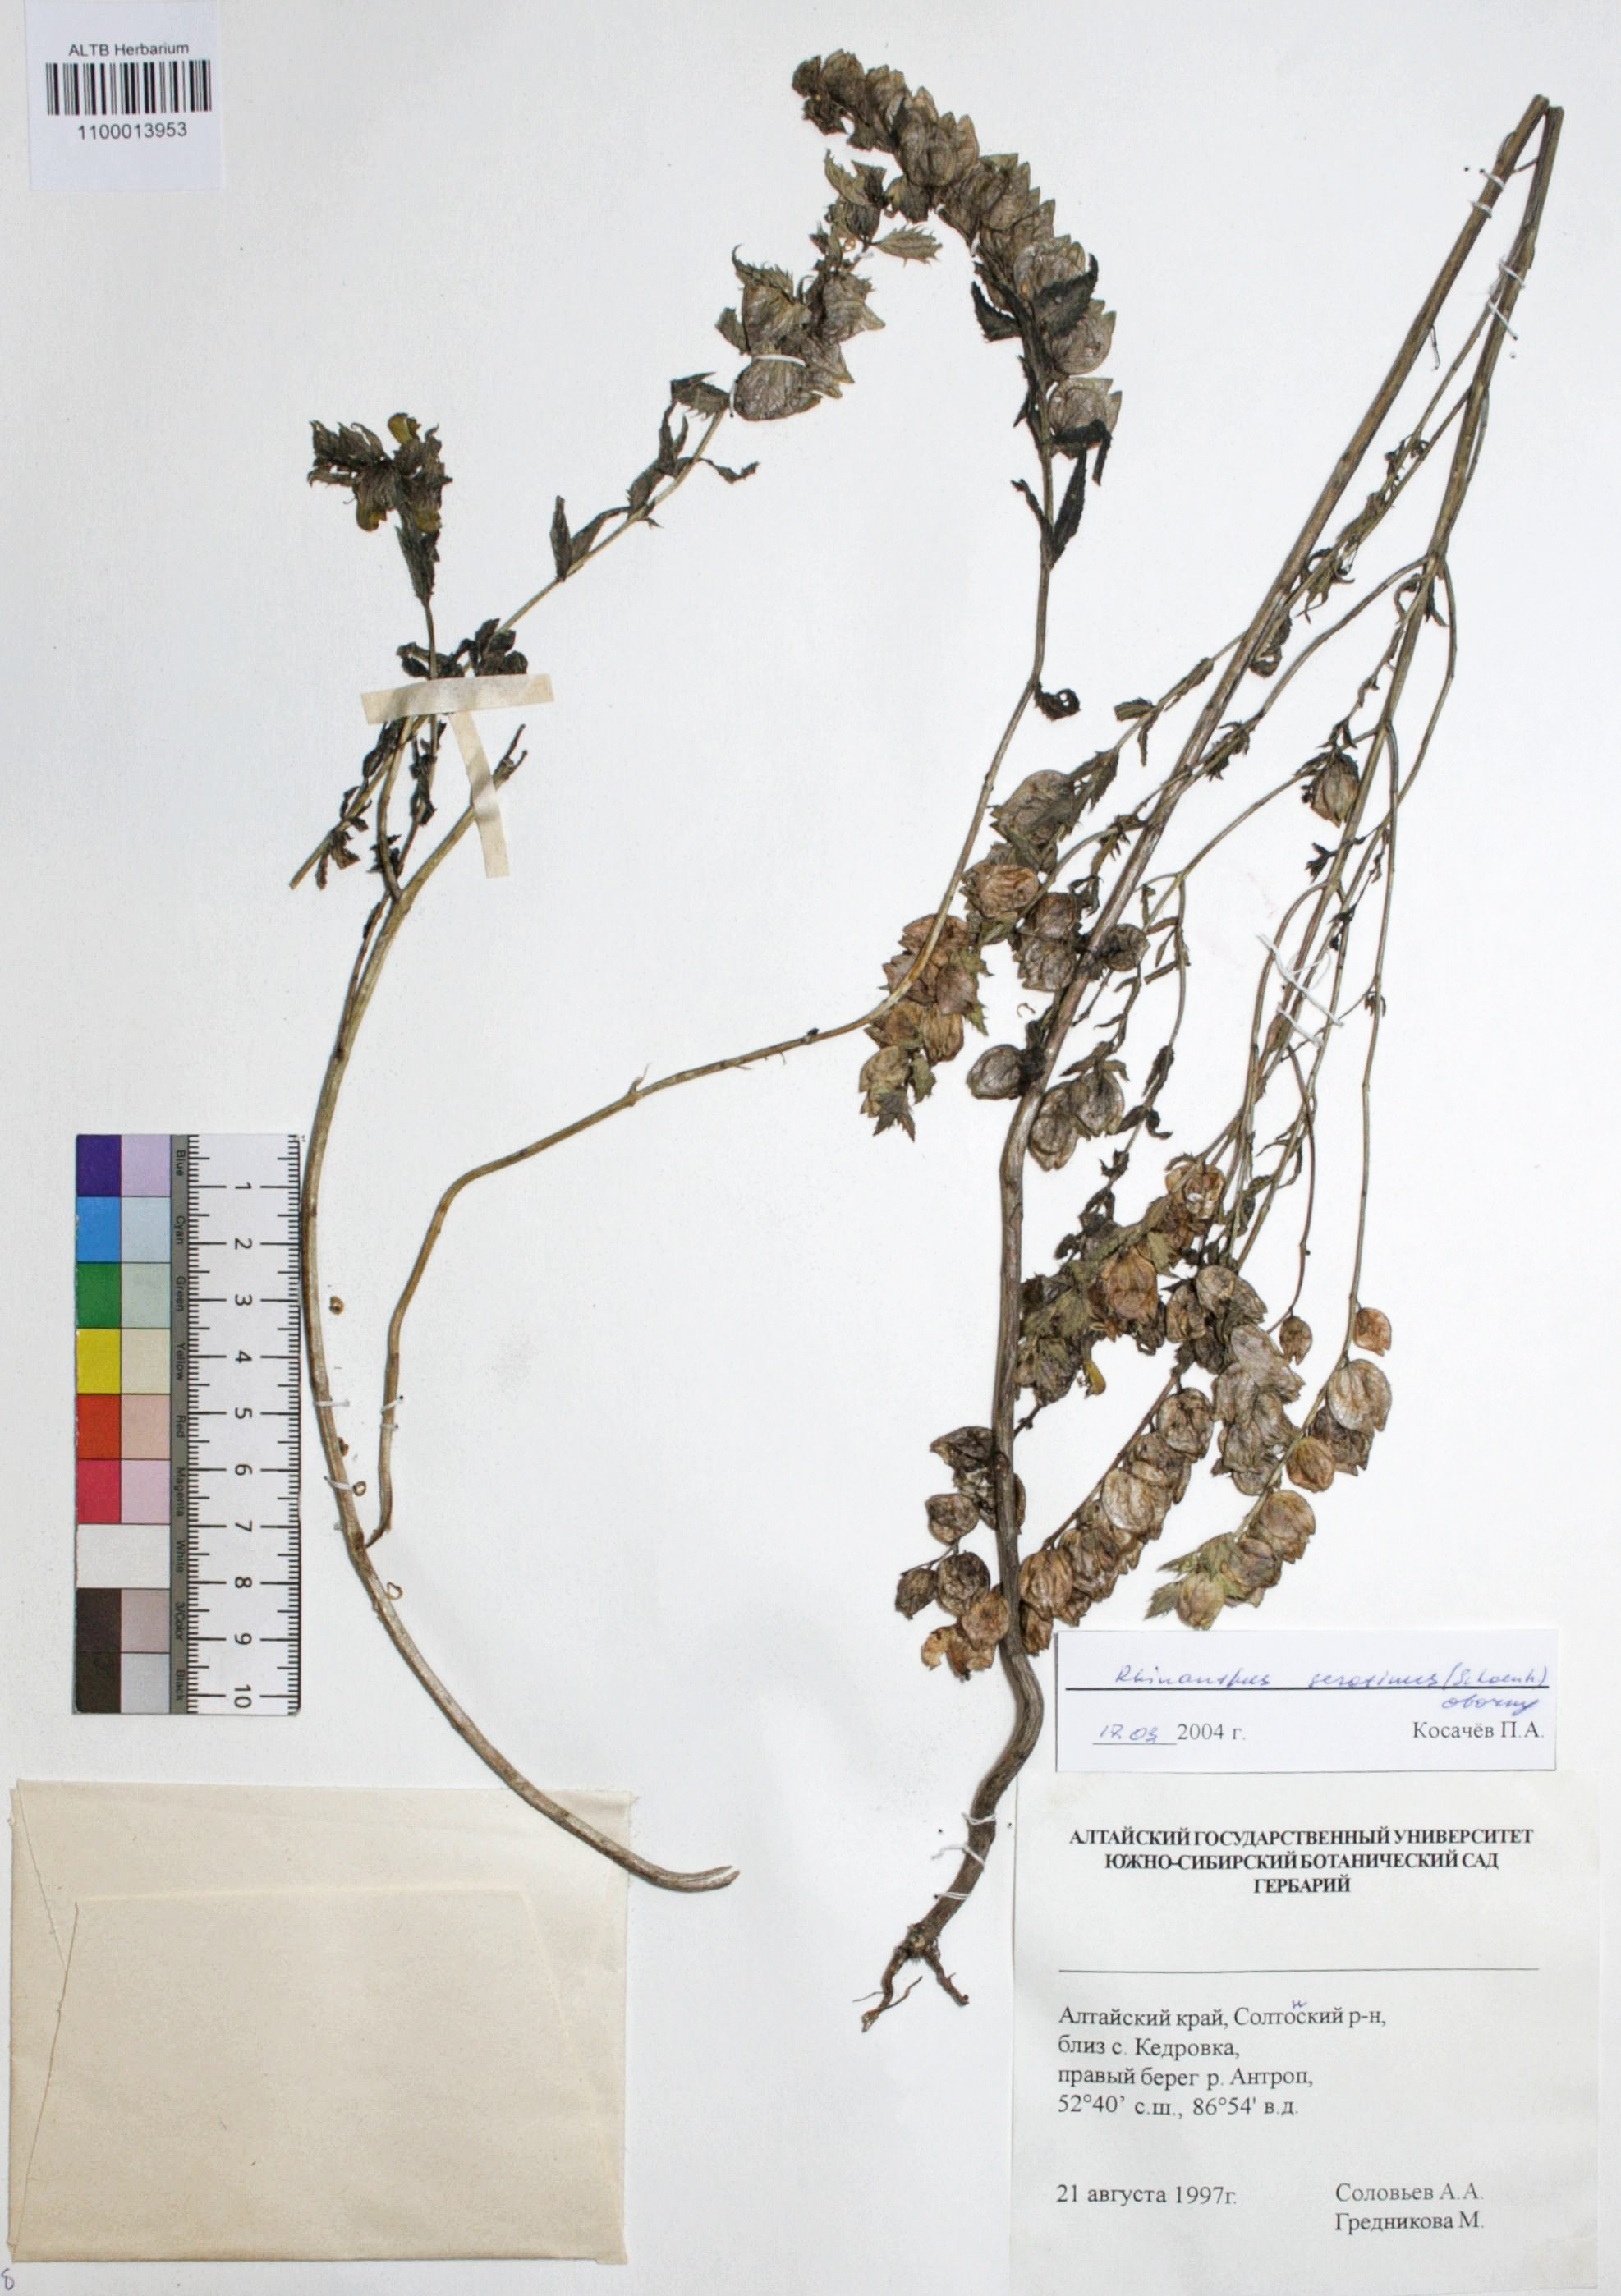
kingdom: Plantae
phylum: Tracheophyta
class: Magnoliopsida
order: Lamiales
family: Orobanchaceae
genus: Rhinanthus
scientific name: Rhinanthus serotinus
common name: Late-flowering yellow rattle
